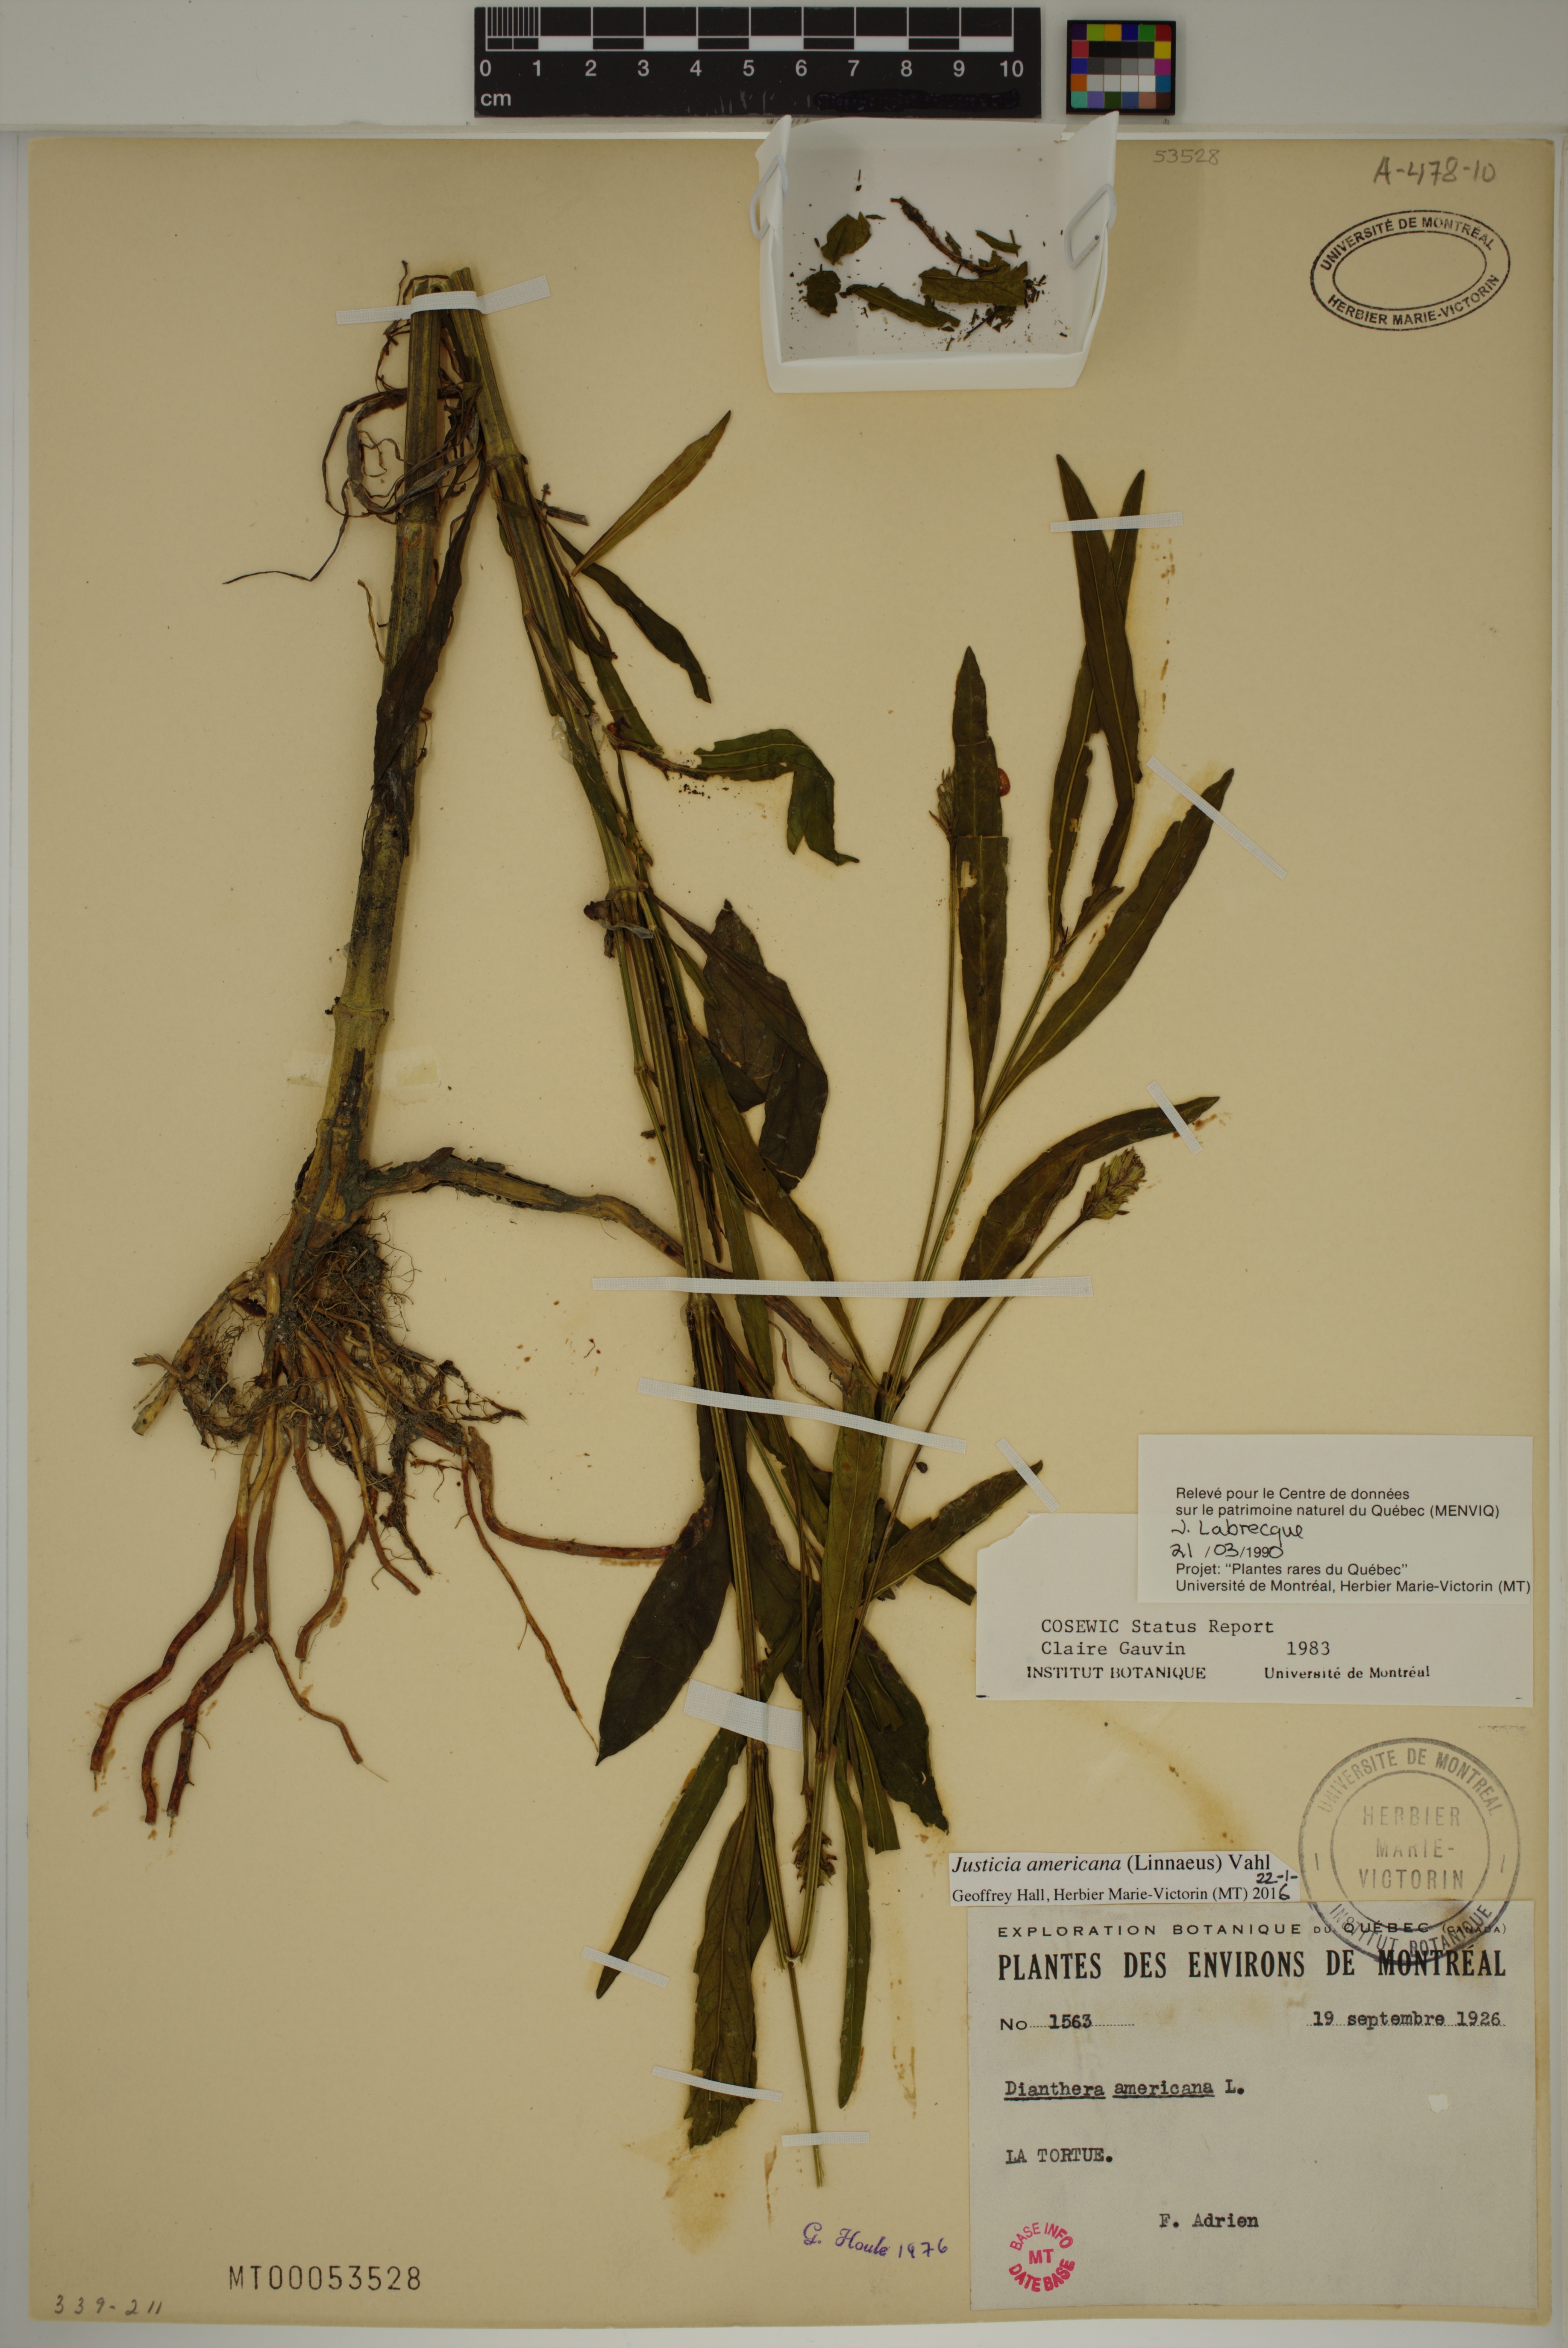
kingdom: Plantae
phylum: Tracheophyta
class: Magnoliopsida
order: Lamiales
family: Acanthaceae
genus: Dianthera
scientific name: Dianthera americana
